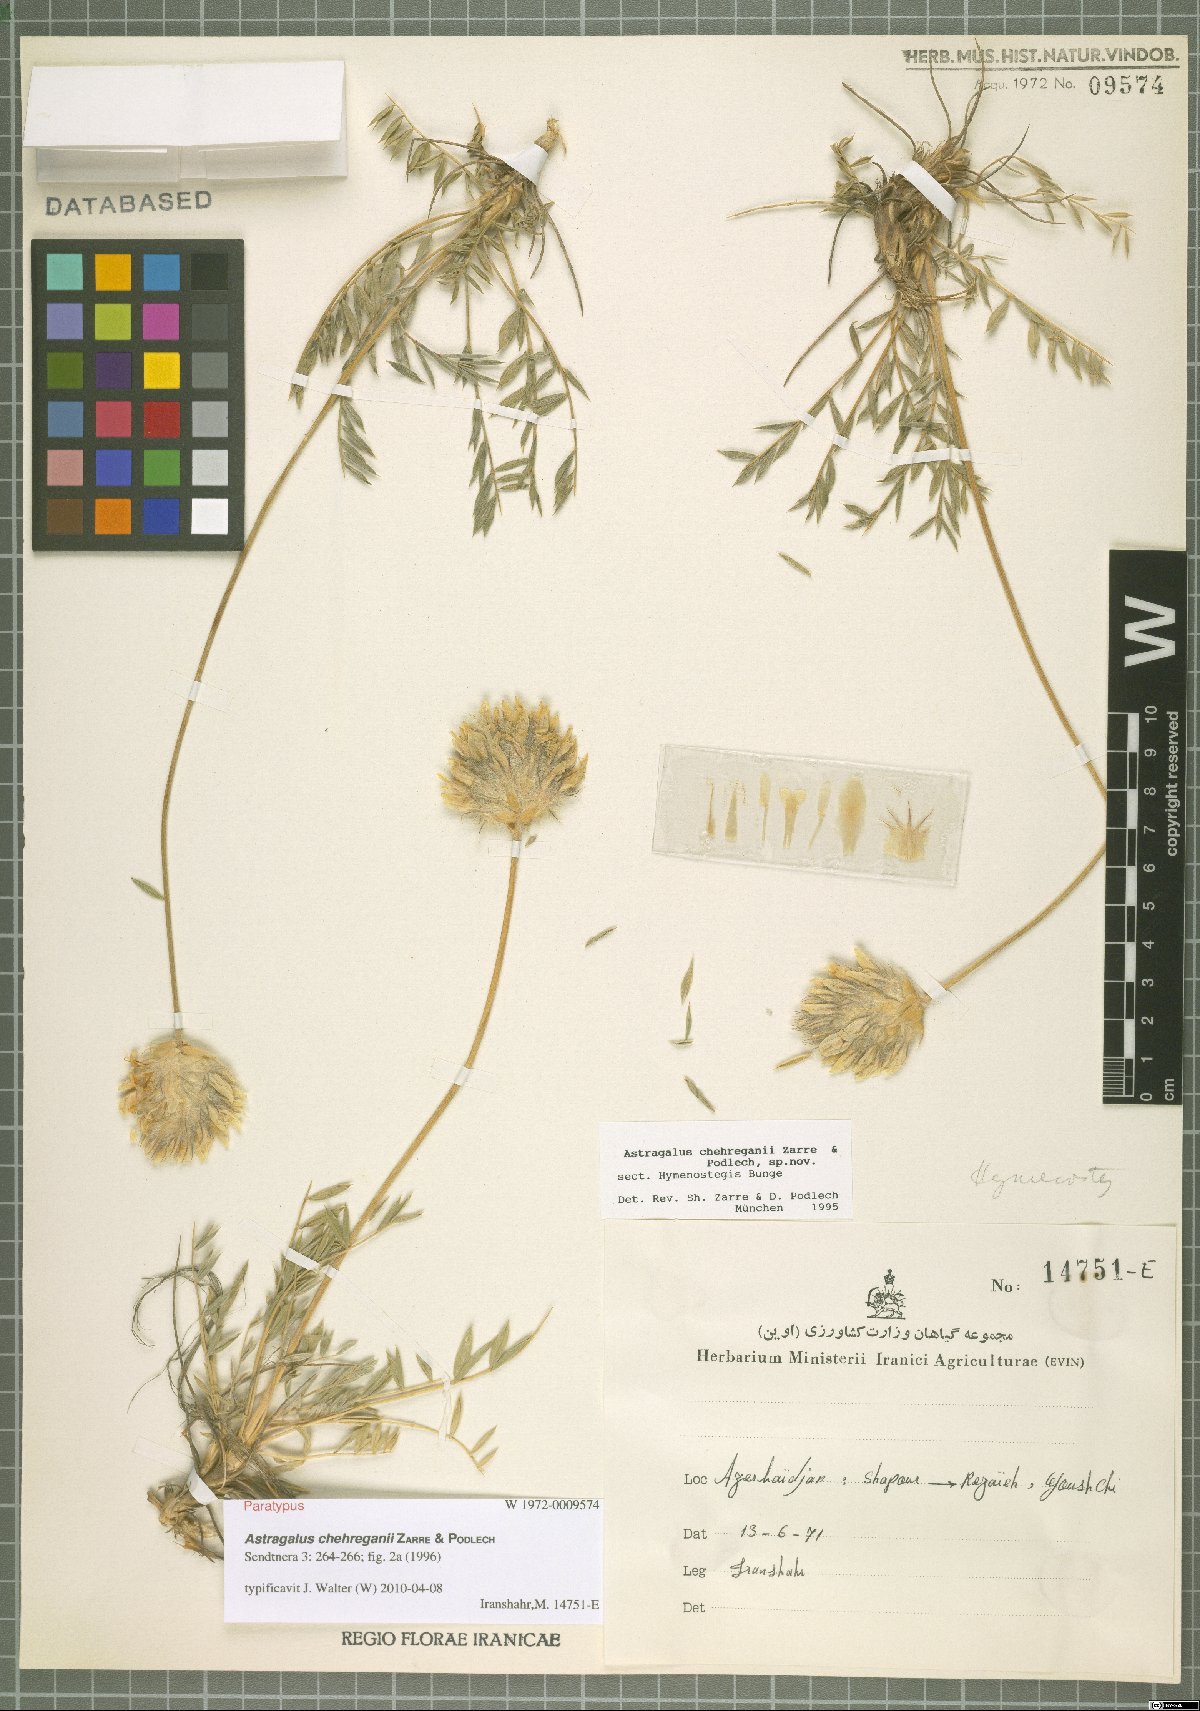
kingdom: Plantae
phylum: Tracheophyta
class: Magnoliopsida
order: Fabales
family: Fabaceae
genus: Astragalus
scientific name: Astragalus chehreganii
